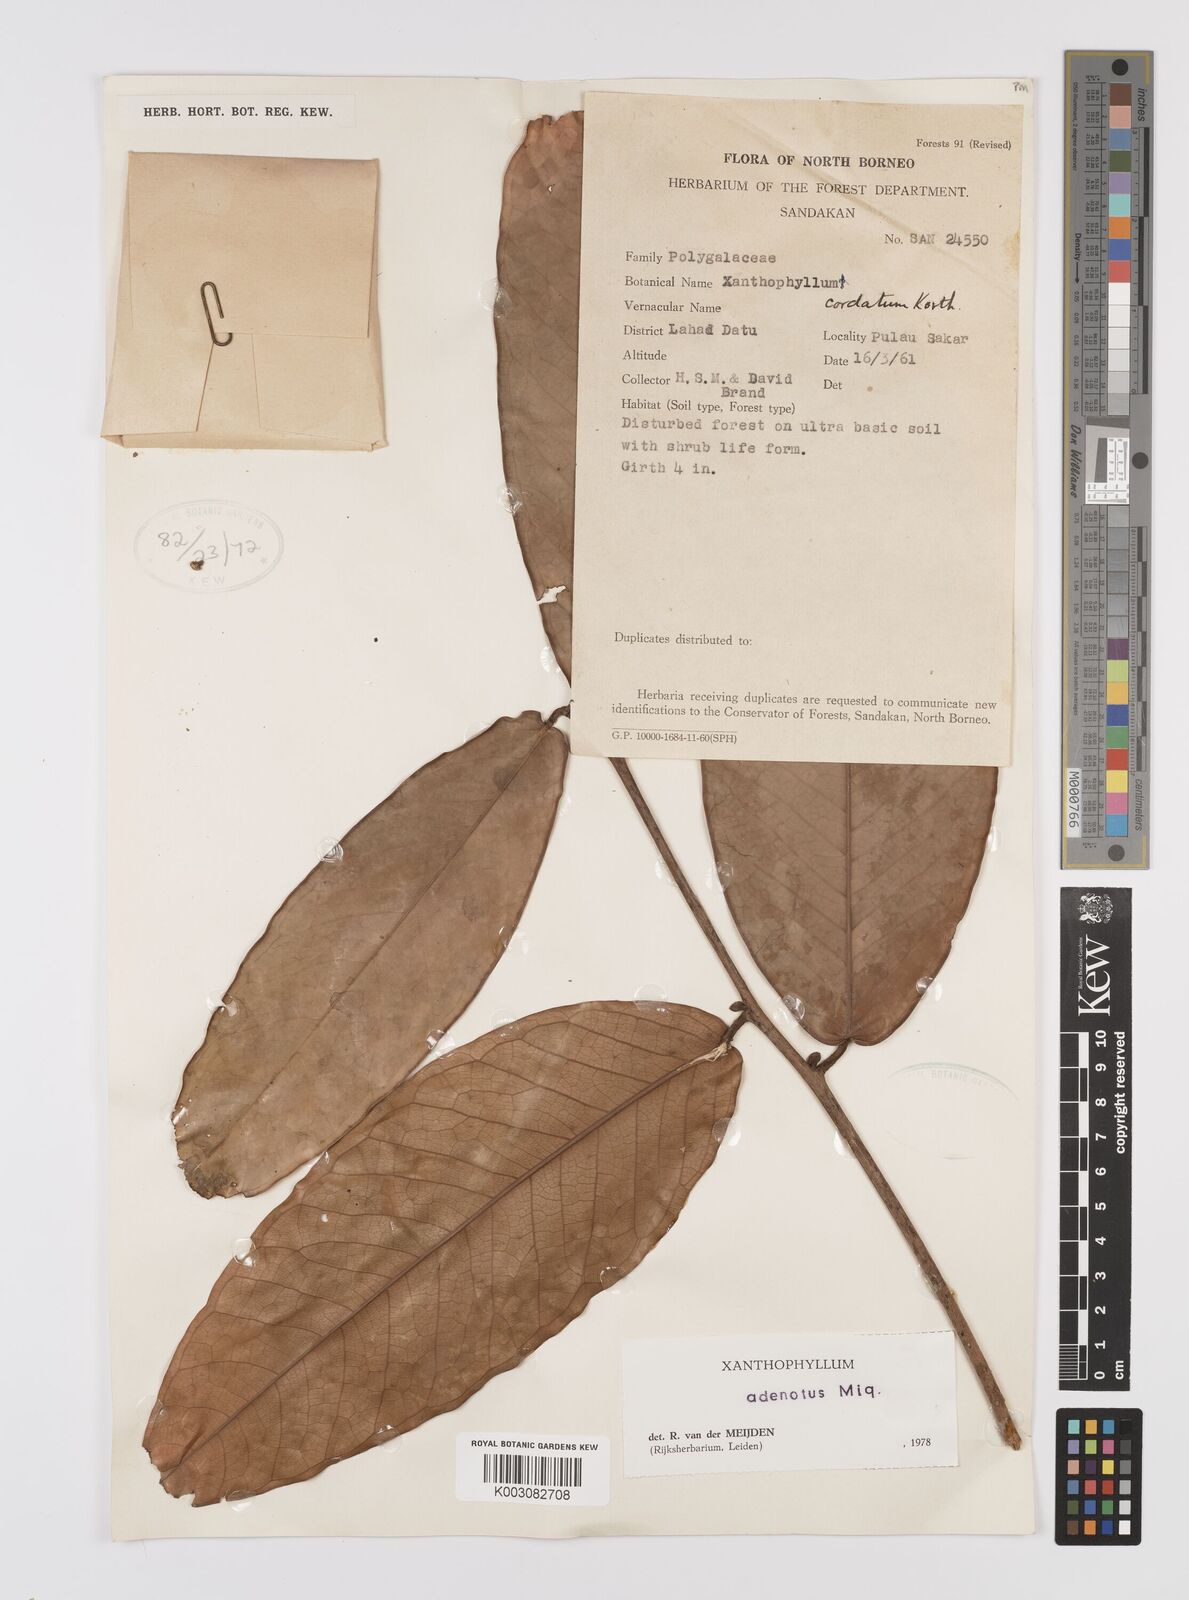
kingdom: Plantae
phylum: Tracheophyta
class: Magnoliopsida
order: Fabales
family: Polygalaceae
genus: Xanthophyllum
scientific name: Xanthophyllum adenotus
